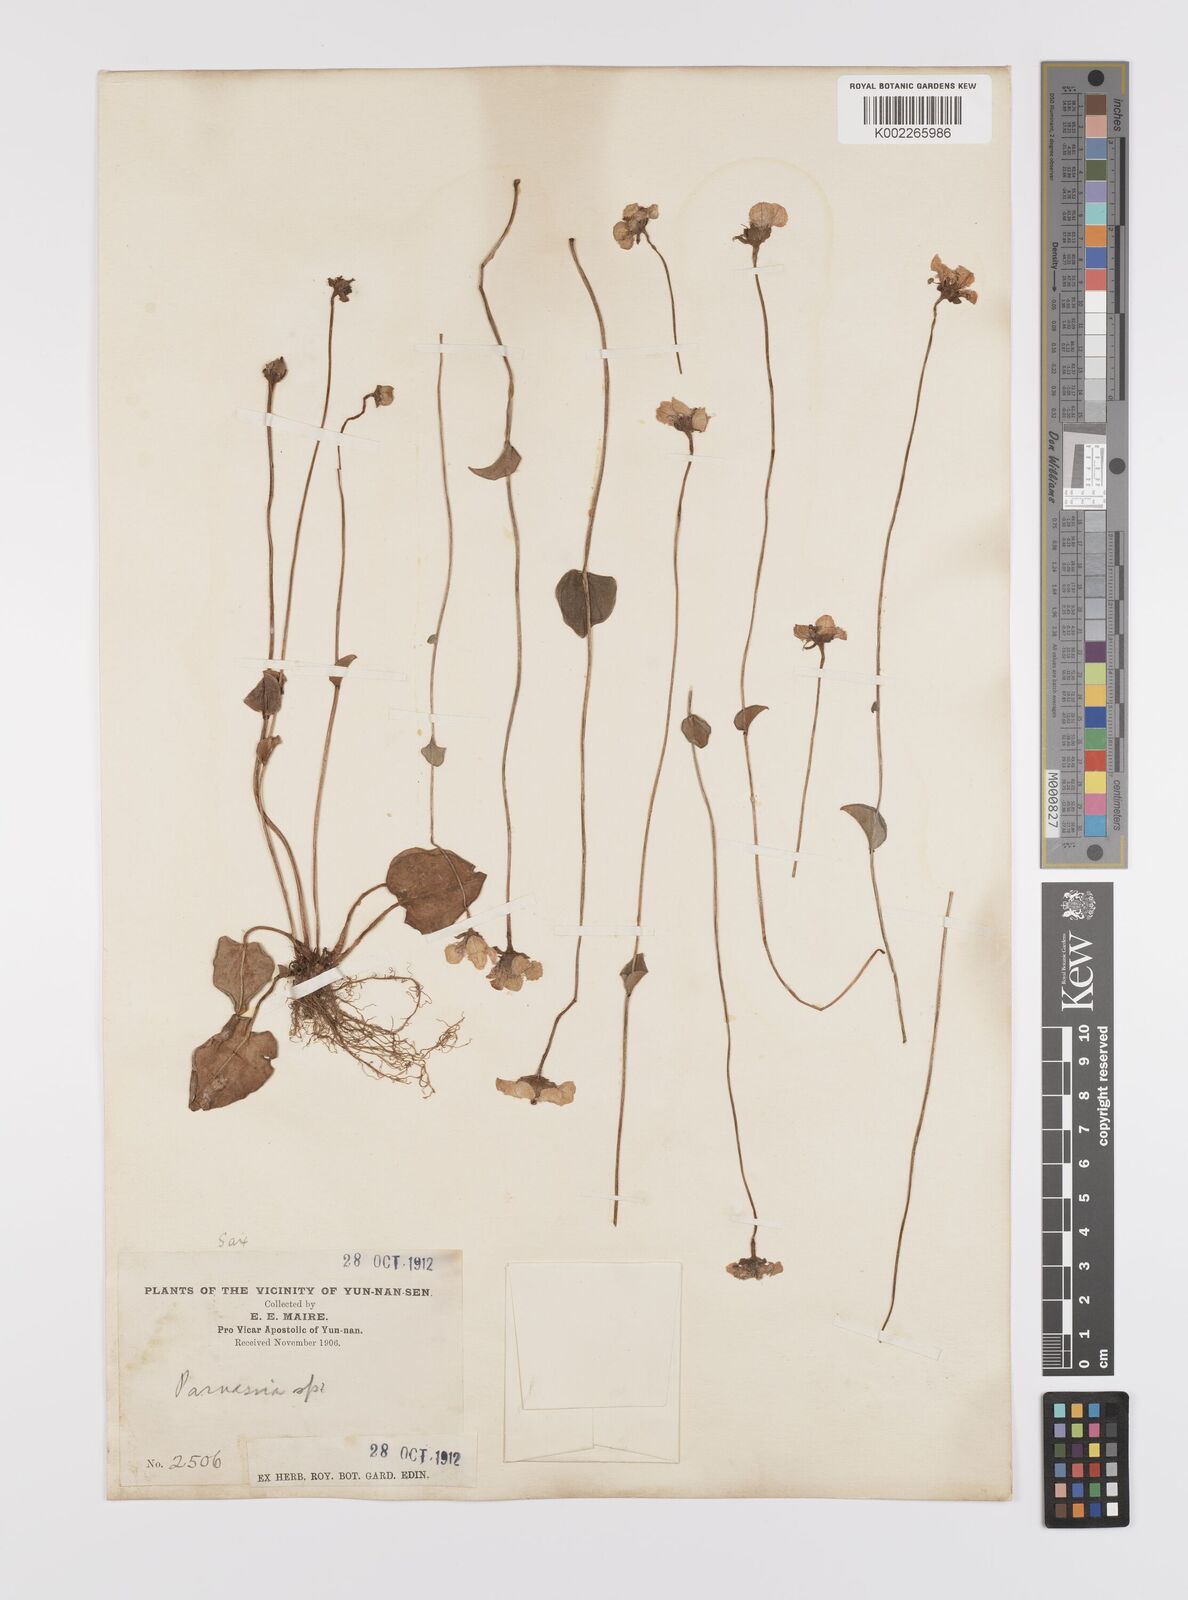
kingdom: Plantae
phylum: Tracheophyta
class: Magnoliopsida
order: Celastrales
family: Parnassiaceae
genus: Parnassia
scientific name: Parnassia wightiana
